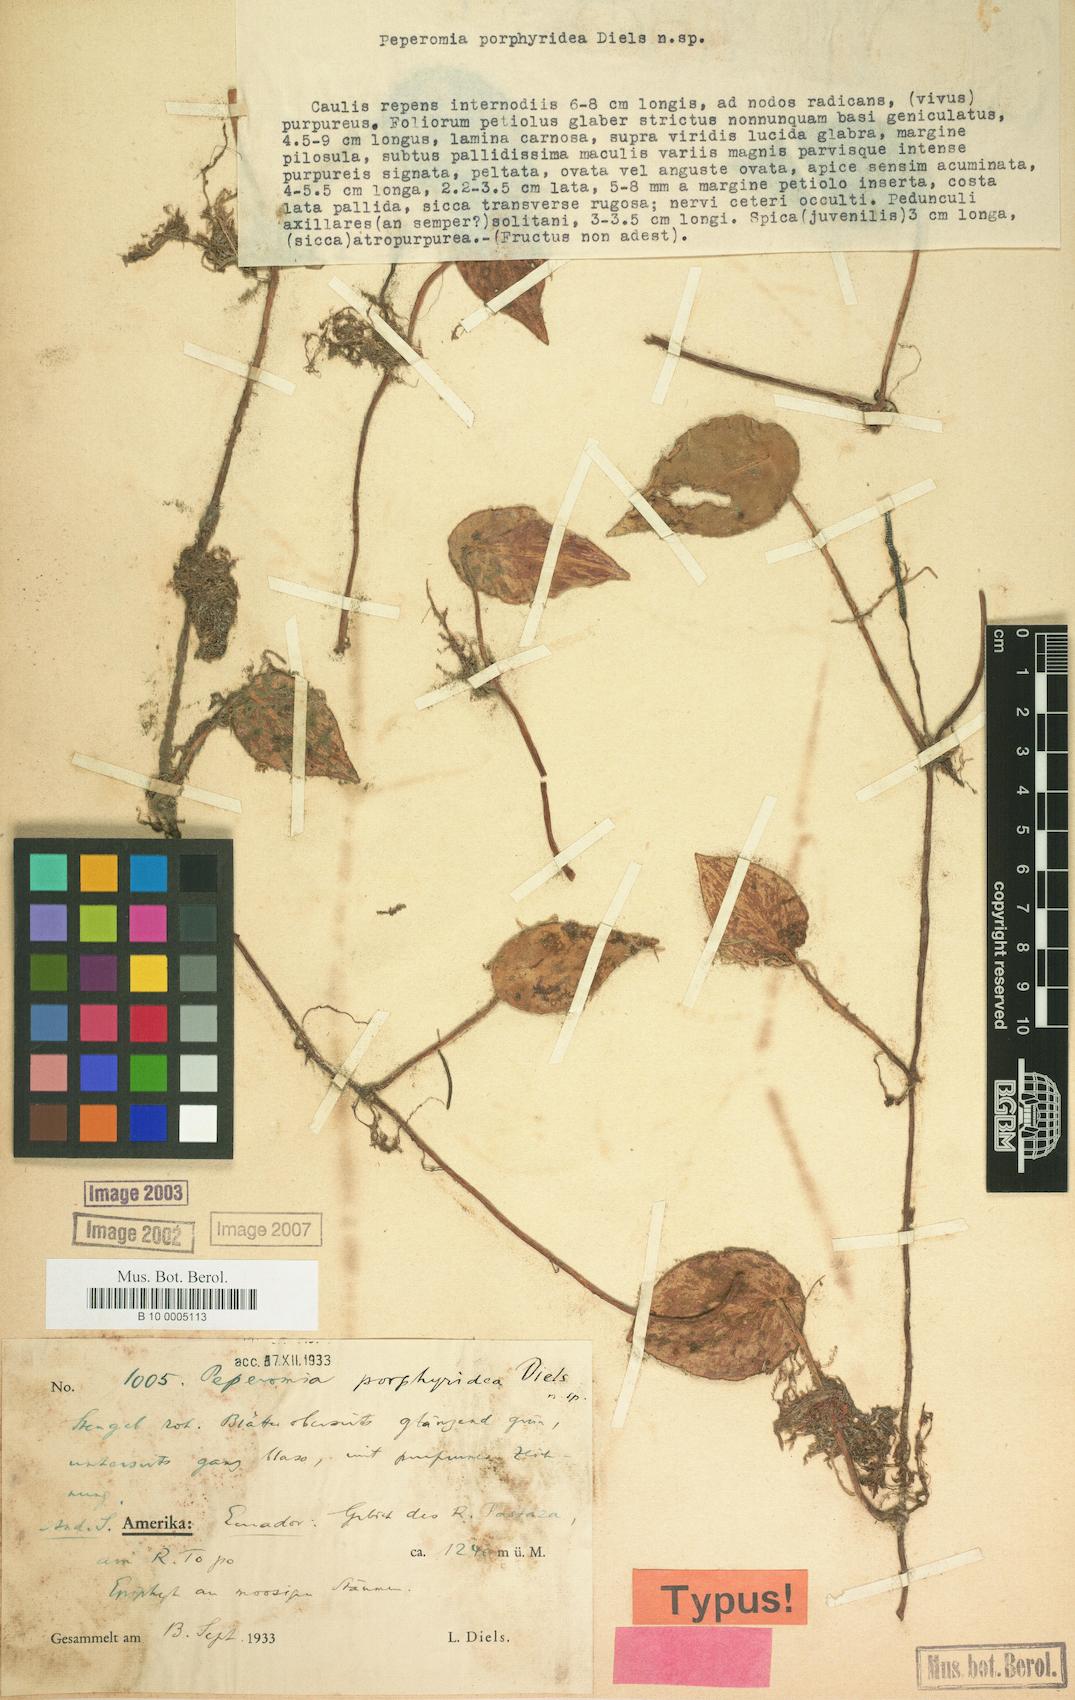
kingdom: Plantae
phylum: Tracheophyta
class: Magnoliopsida
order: Piperales
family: Piperaceae
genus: Peperomia
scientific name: Peperomia porphyridea
